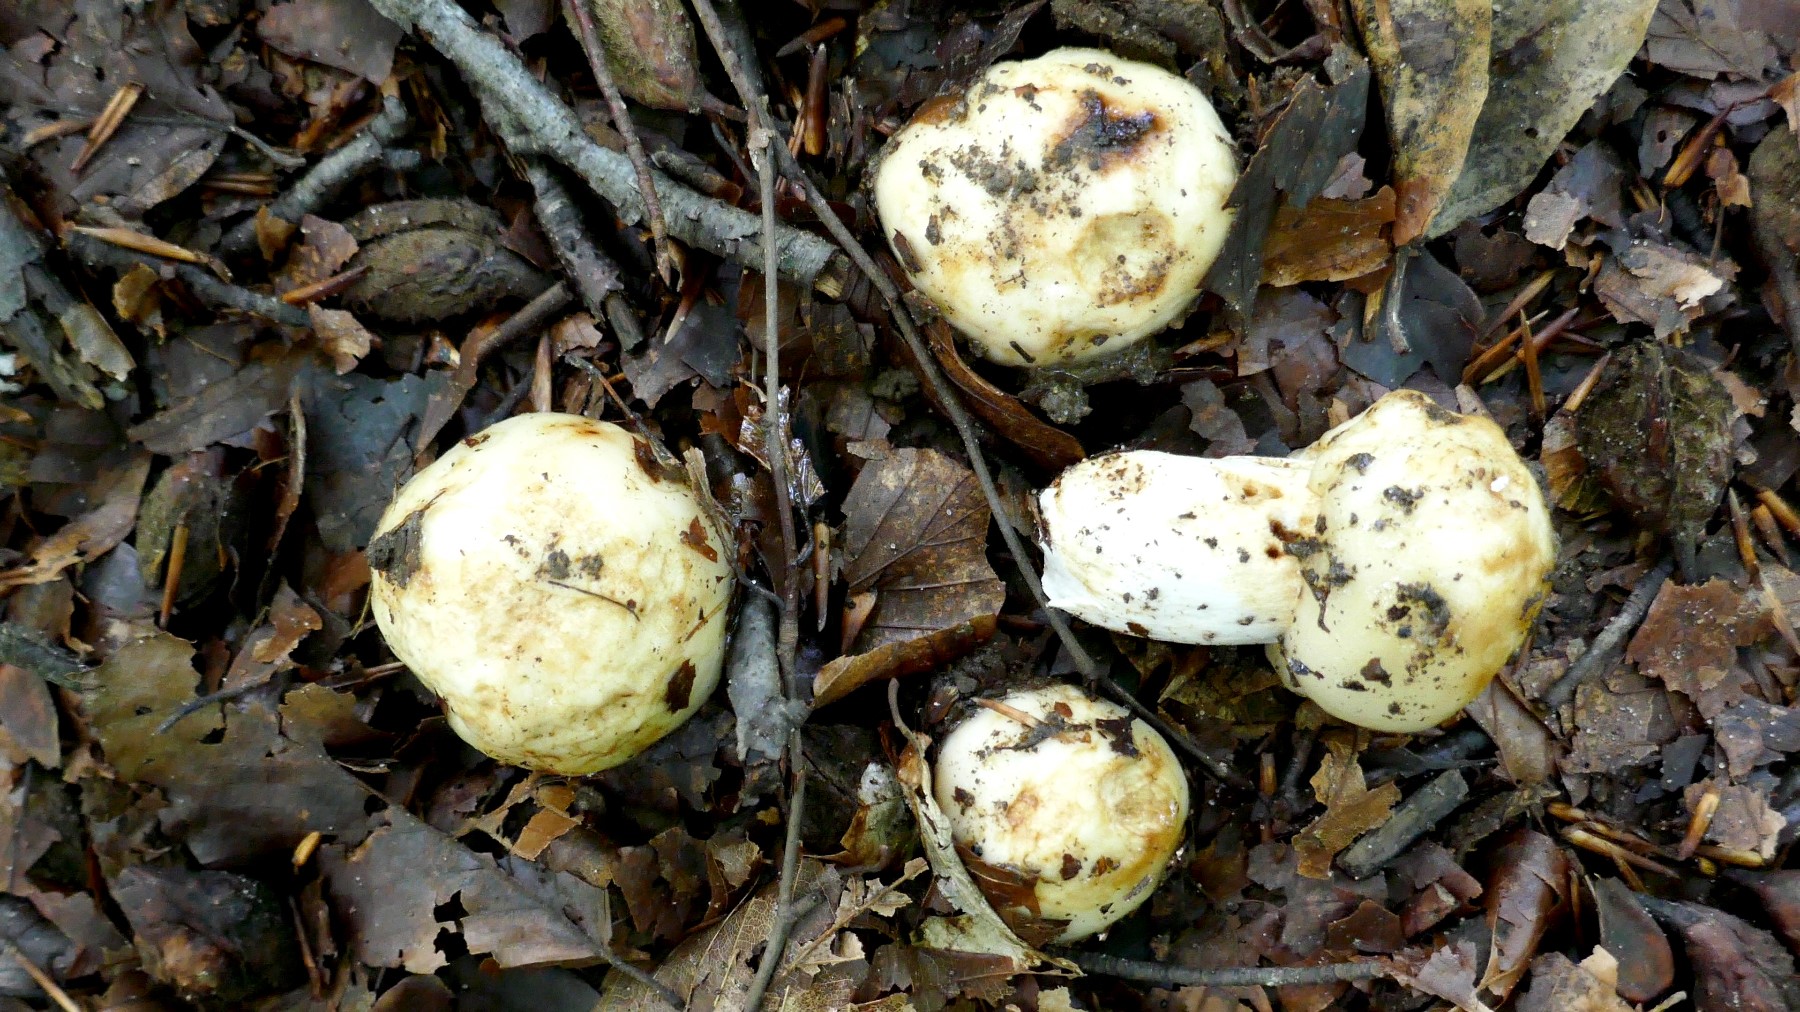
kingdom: Fungi
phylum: Basidiomycota
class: Agaricomycetes
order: Russulales
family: Russulaceae
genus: Russula
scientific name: Russula foetens
